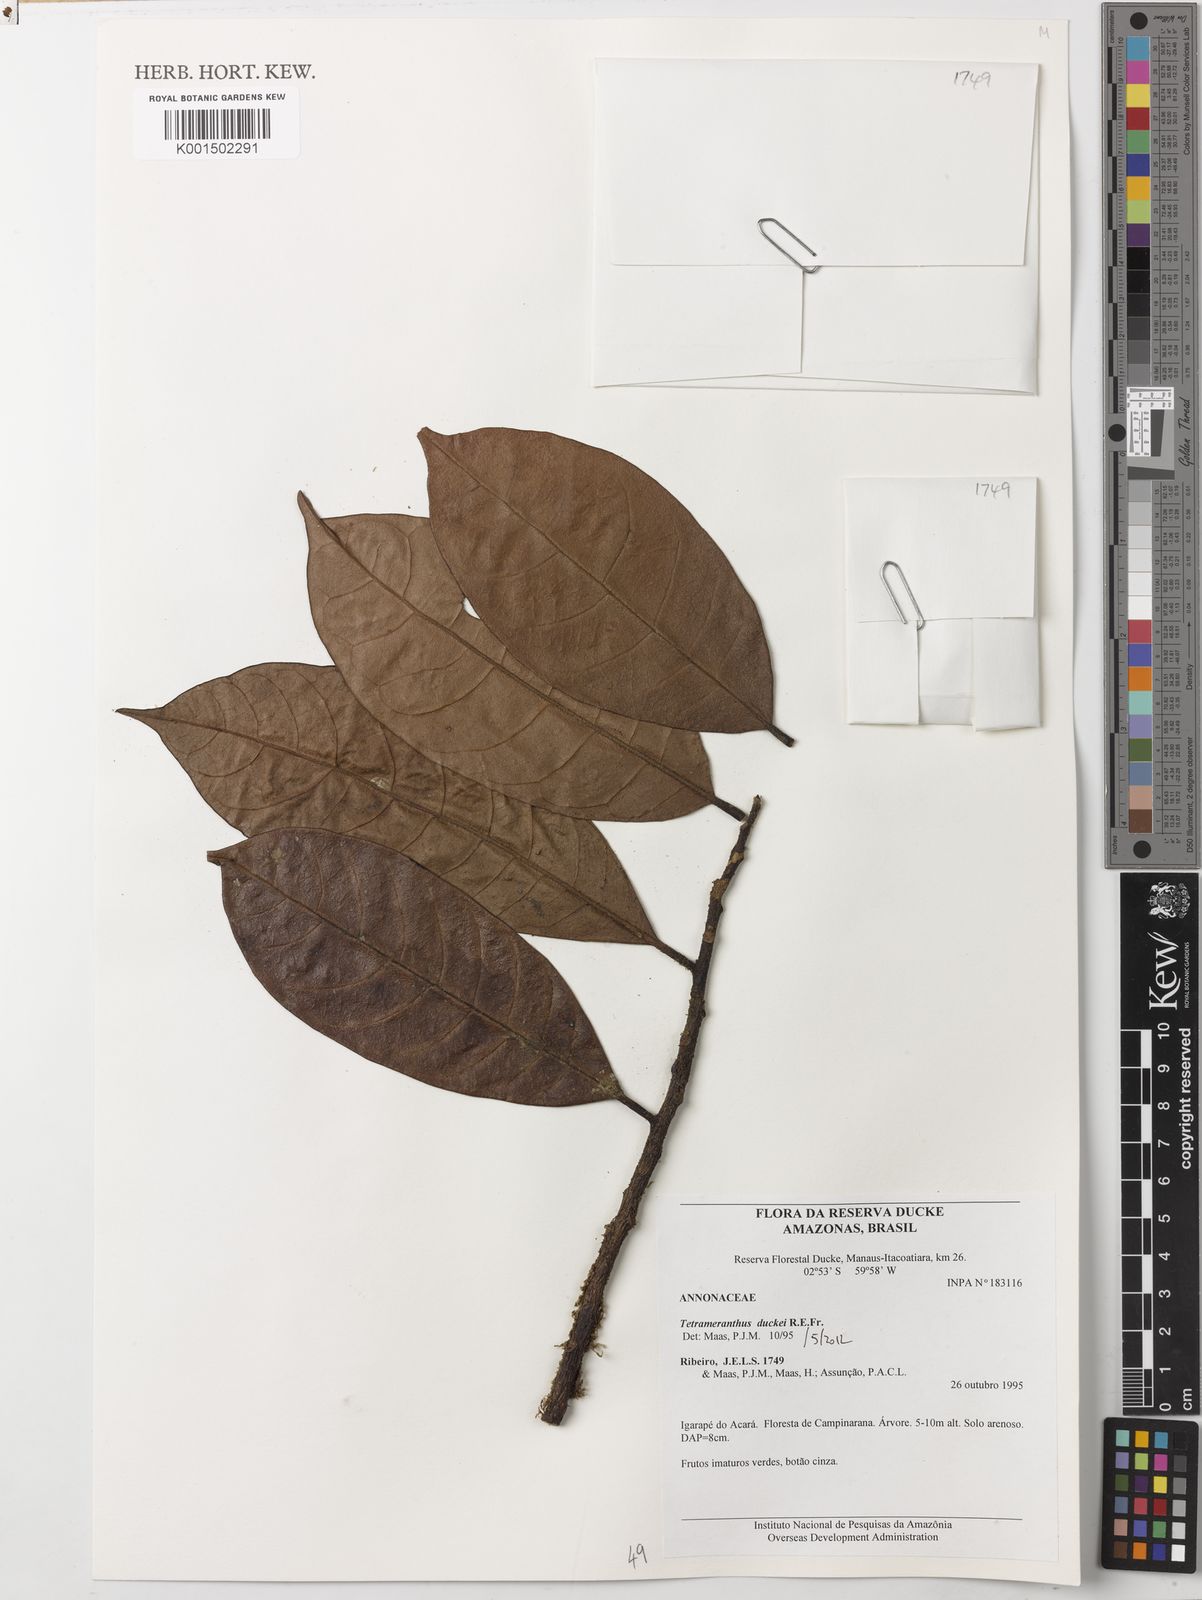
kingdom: Plantae
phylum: Tracheophyta
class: Magnoliopsida
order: Magnoliales
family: Annonaceae
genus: Tetrameranthus
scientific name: Tetrameranthus duckei
